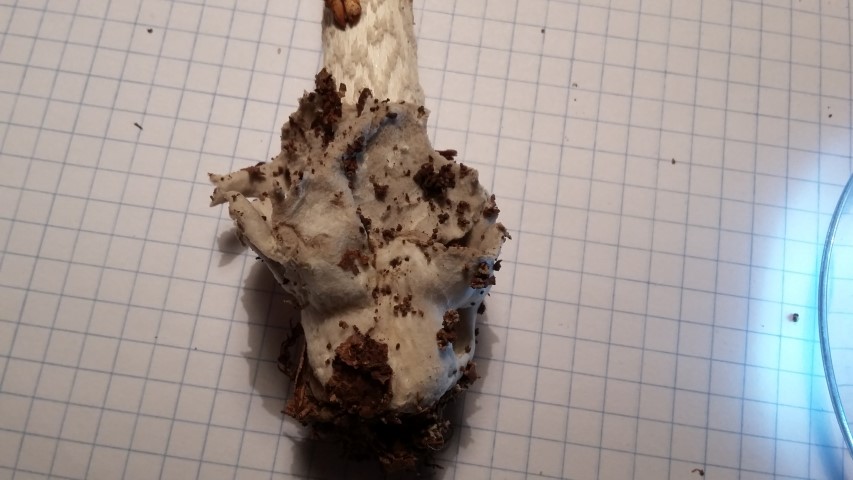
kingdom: Fungi
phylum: Basidiomycota
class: Agaricomycetes
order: Agaricales
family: Amanitaceae
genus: Amanita
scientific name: Amanita submembranacea
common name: gråspættet kam-fluesvamp
